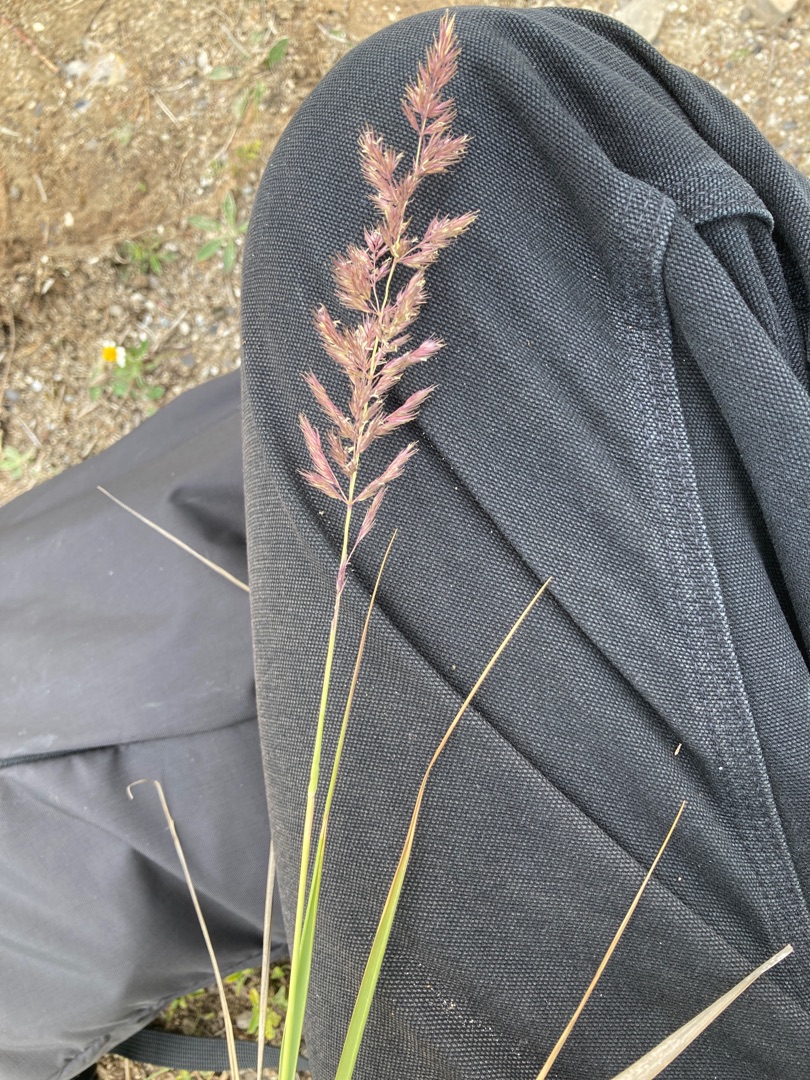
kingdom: Plantae
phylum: Tracheophyta
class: Liliopsida
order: Poales
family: Poaceae
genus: Calamagrostis
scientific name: Calamagrostis epigejos
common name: Bjerg-rørhvene
